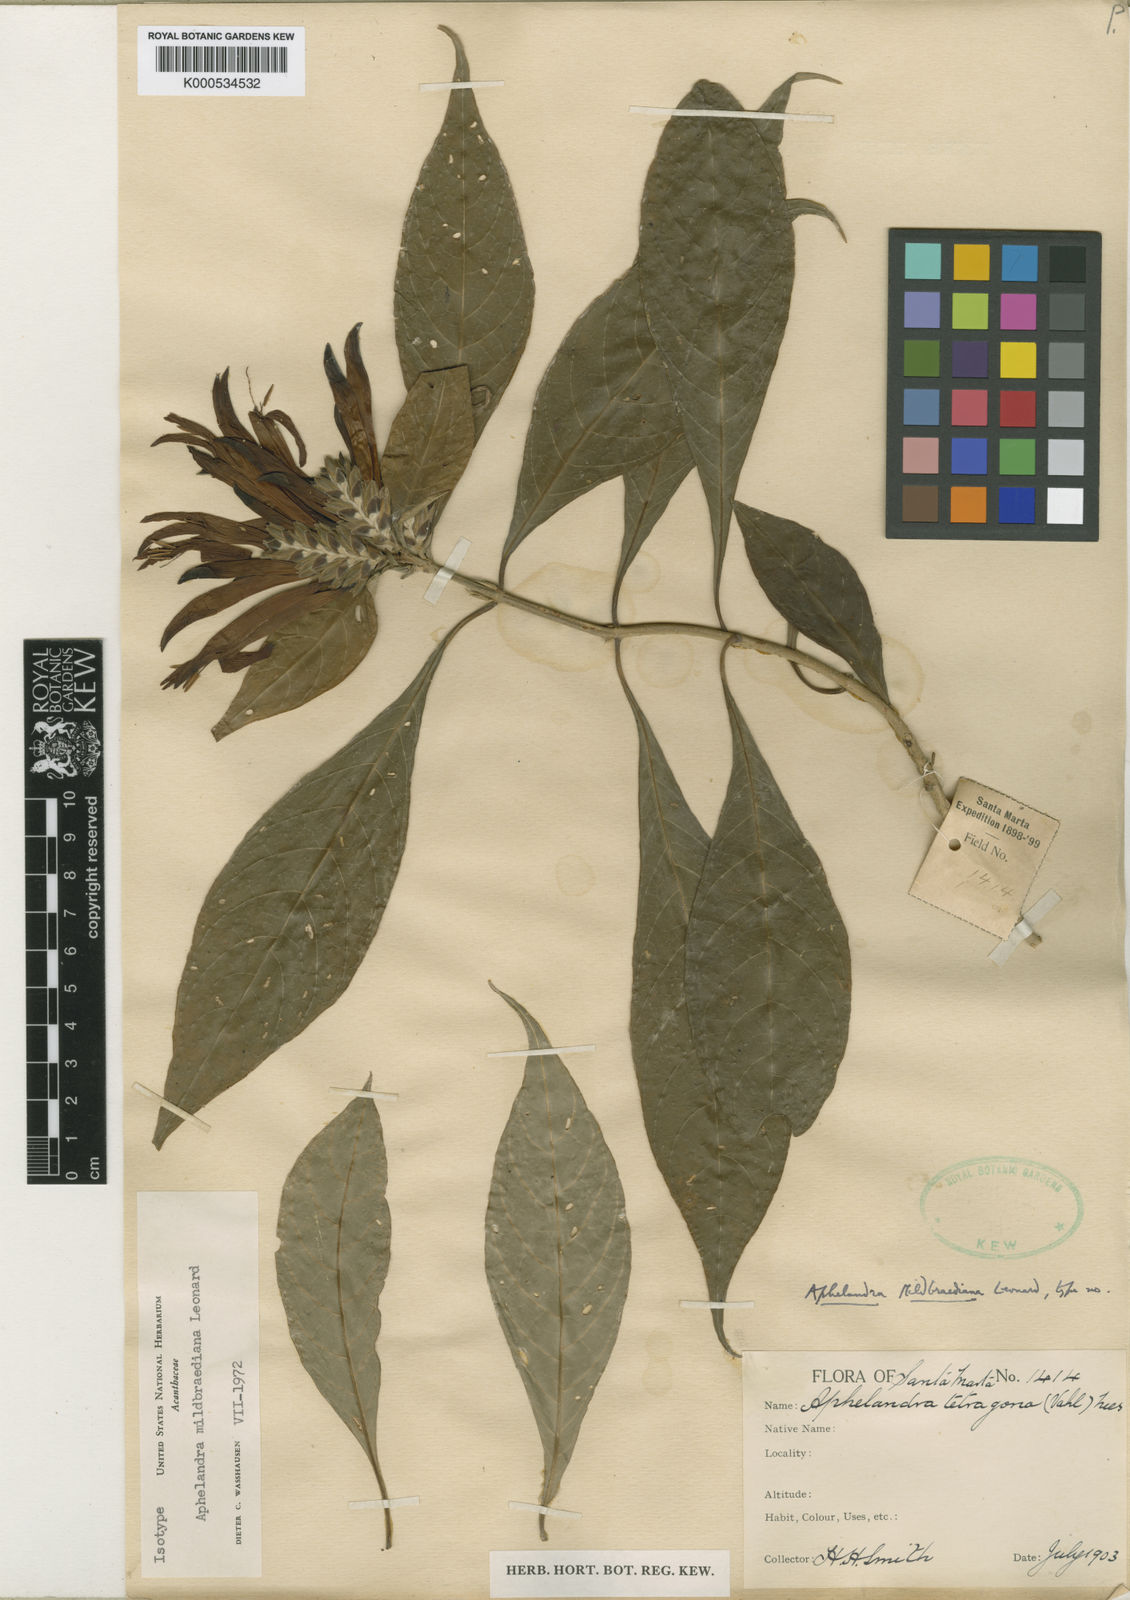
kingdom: Plantae
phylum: Tracheophyta
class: Magnoliopsida
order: Lamiales
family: Acanthaceae
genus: Aphelandra
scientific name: Aphelandra mildbraediana
